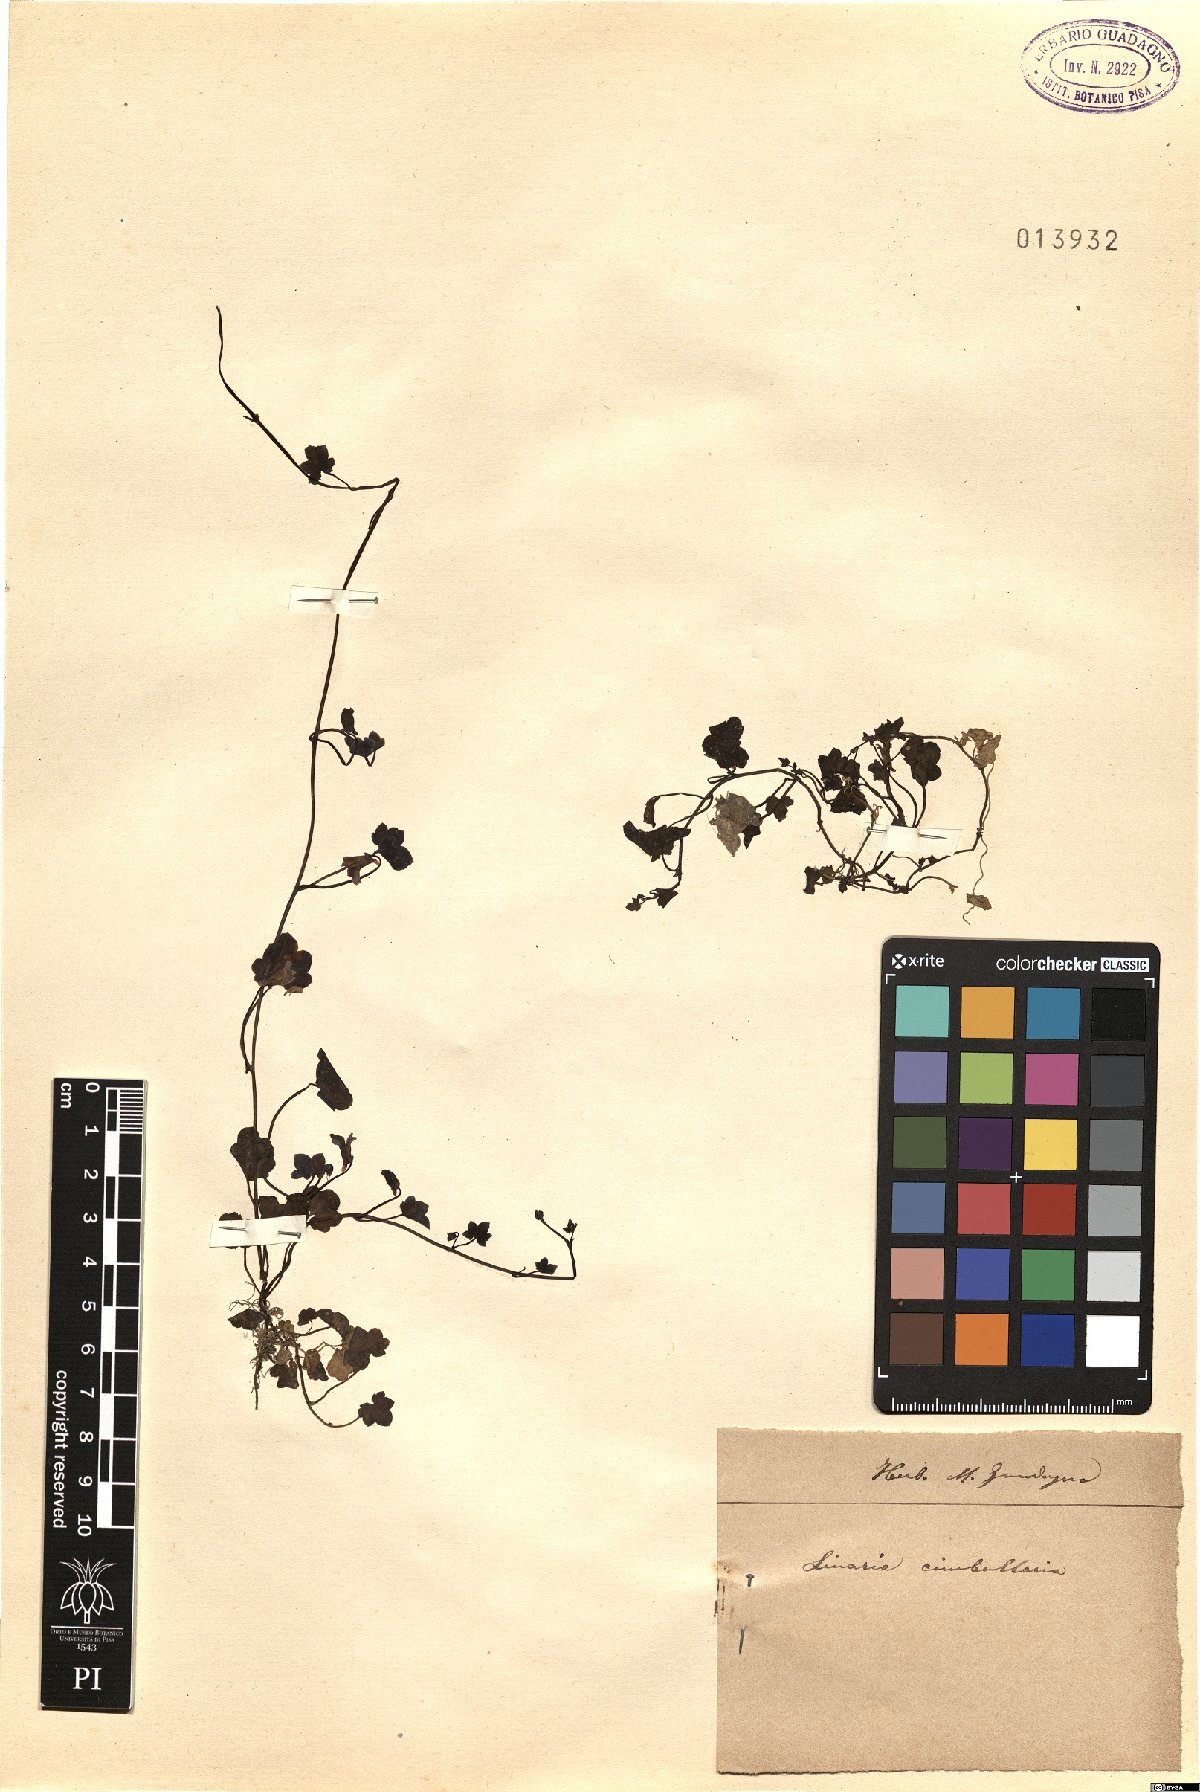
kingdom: Plantae
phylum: Tracheophyta
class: Magnoliopsida
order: Lamiales
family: Plantaginaceae
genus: Cymbalaria
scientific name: Cymbalaria muralis
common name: Ivy-leaved toadflax
